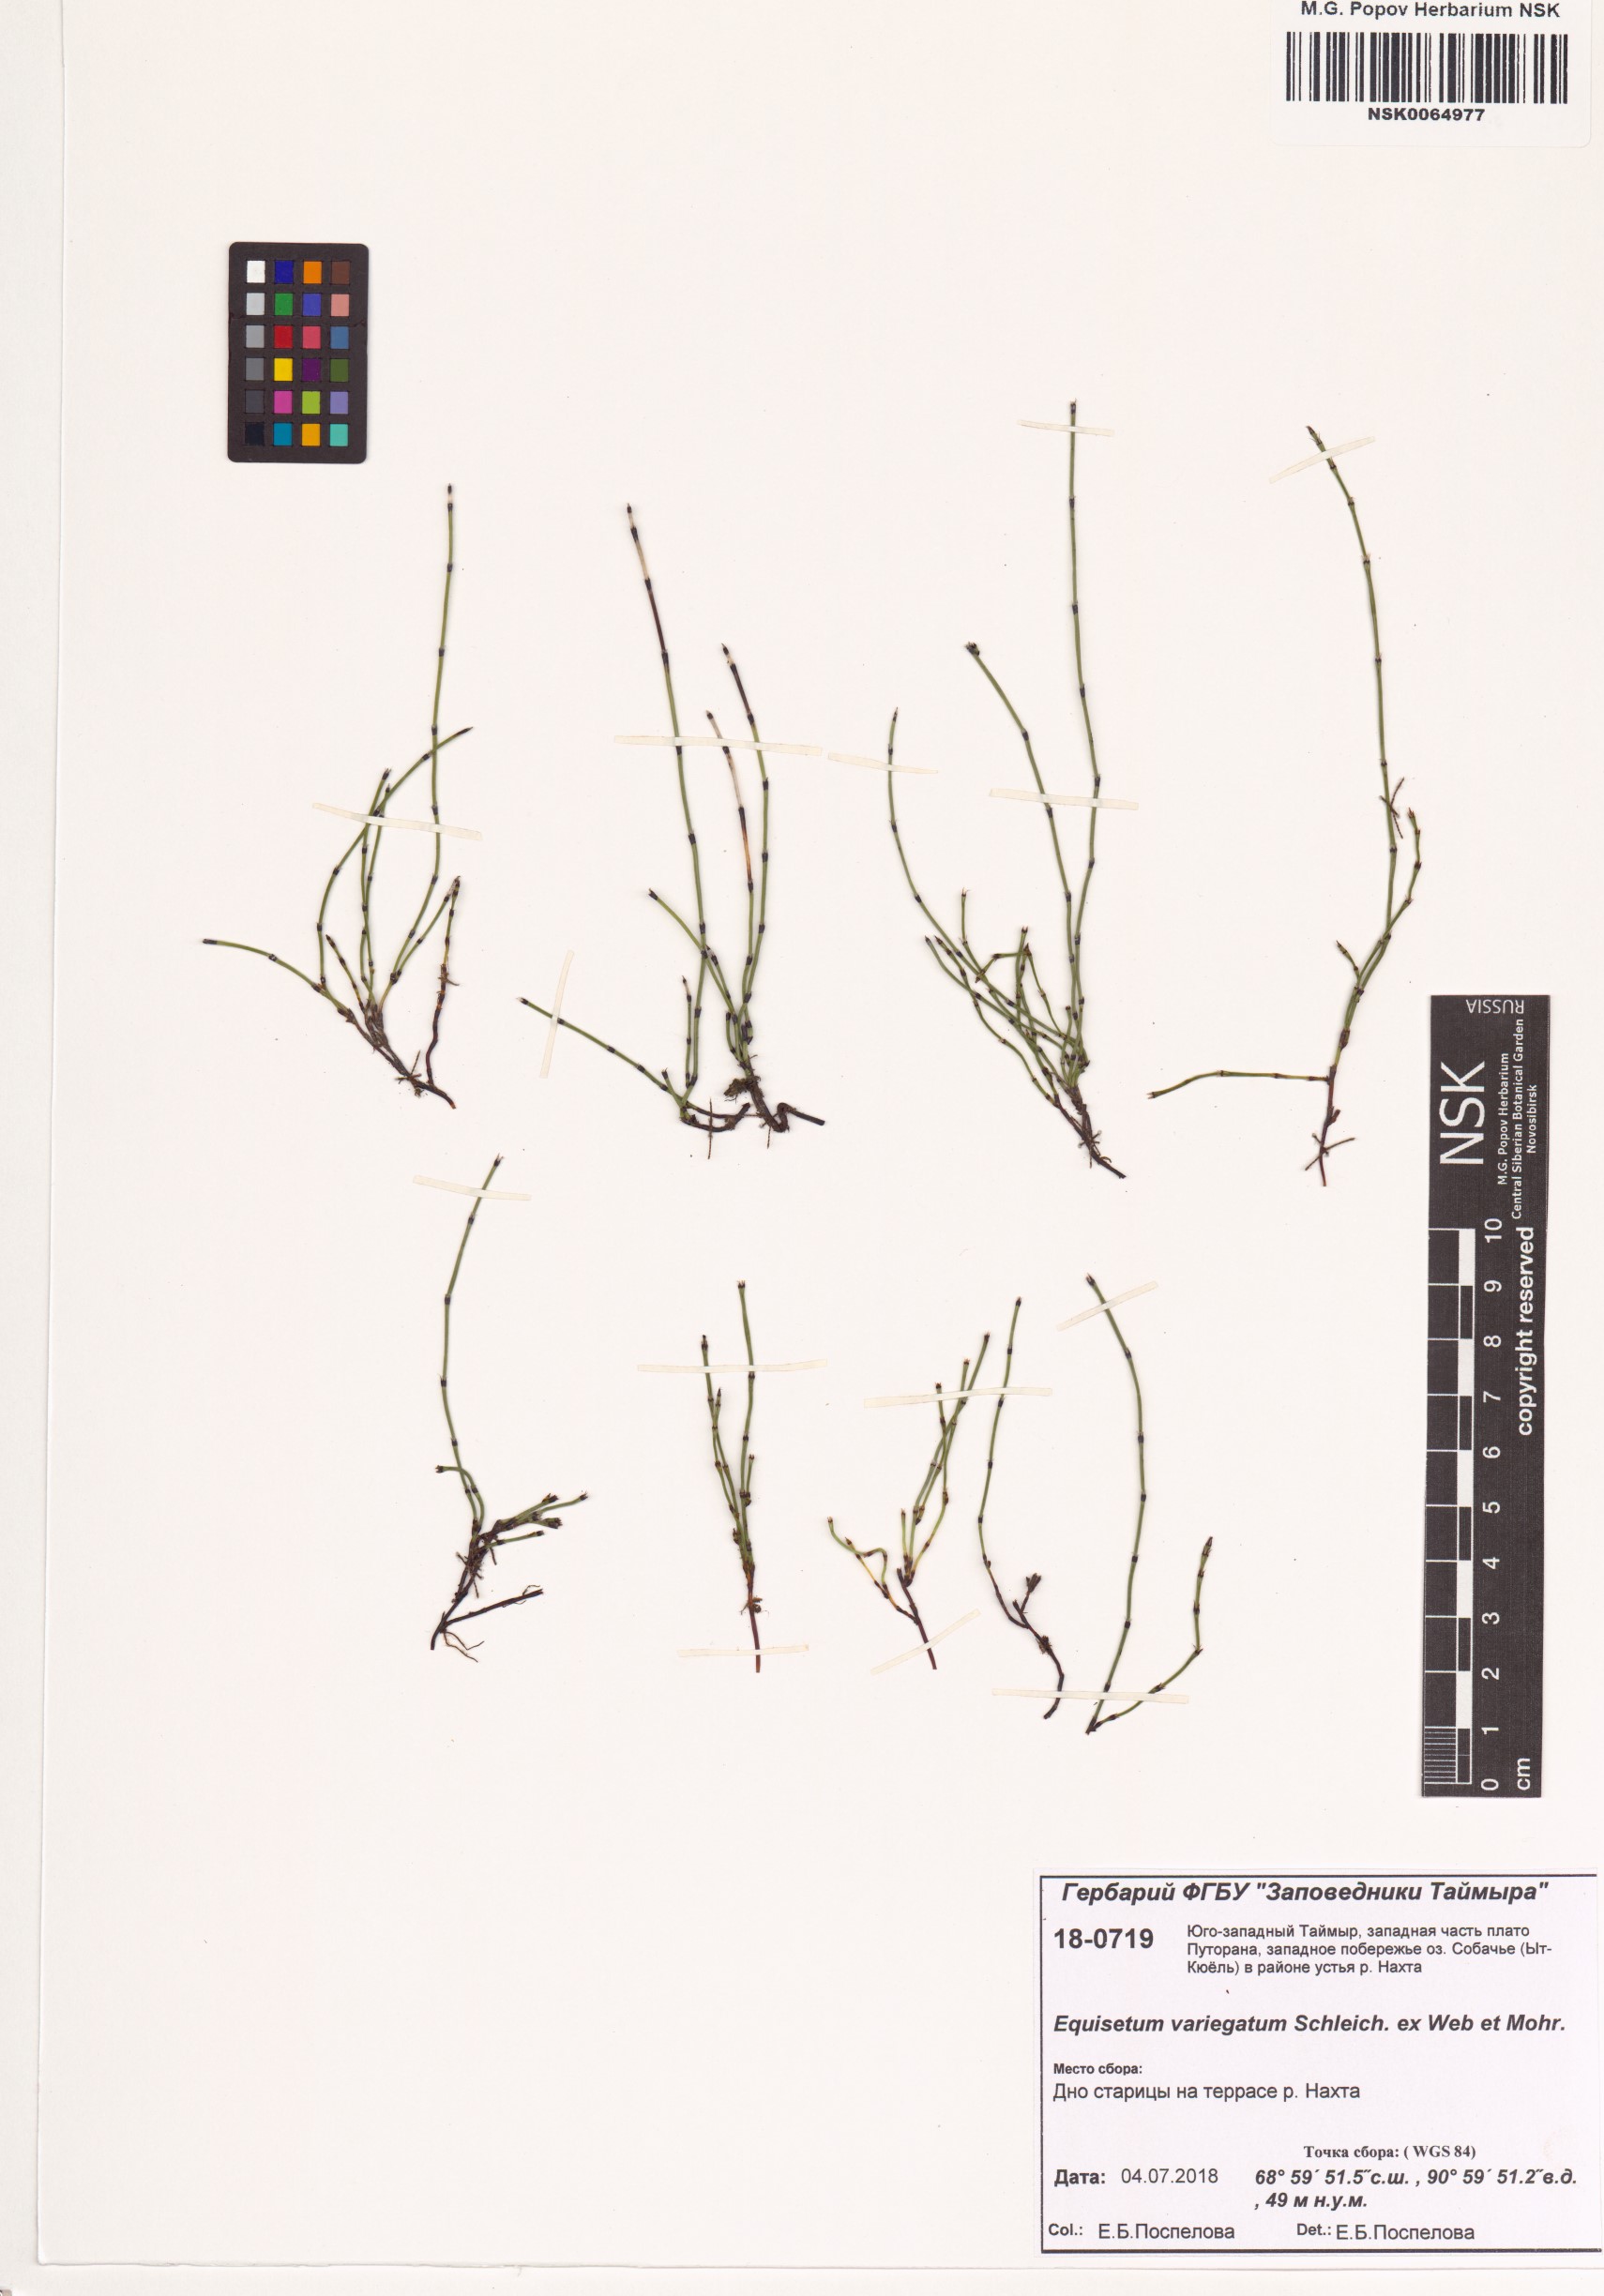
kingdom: Plantae
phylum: Tracheophyta
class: Polypodiopsida
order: Equisetales
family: Equisetaceae
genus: Equisetum
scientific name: Equisetum variegatum
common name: Variegated horsetail
